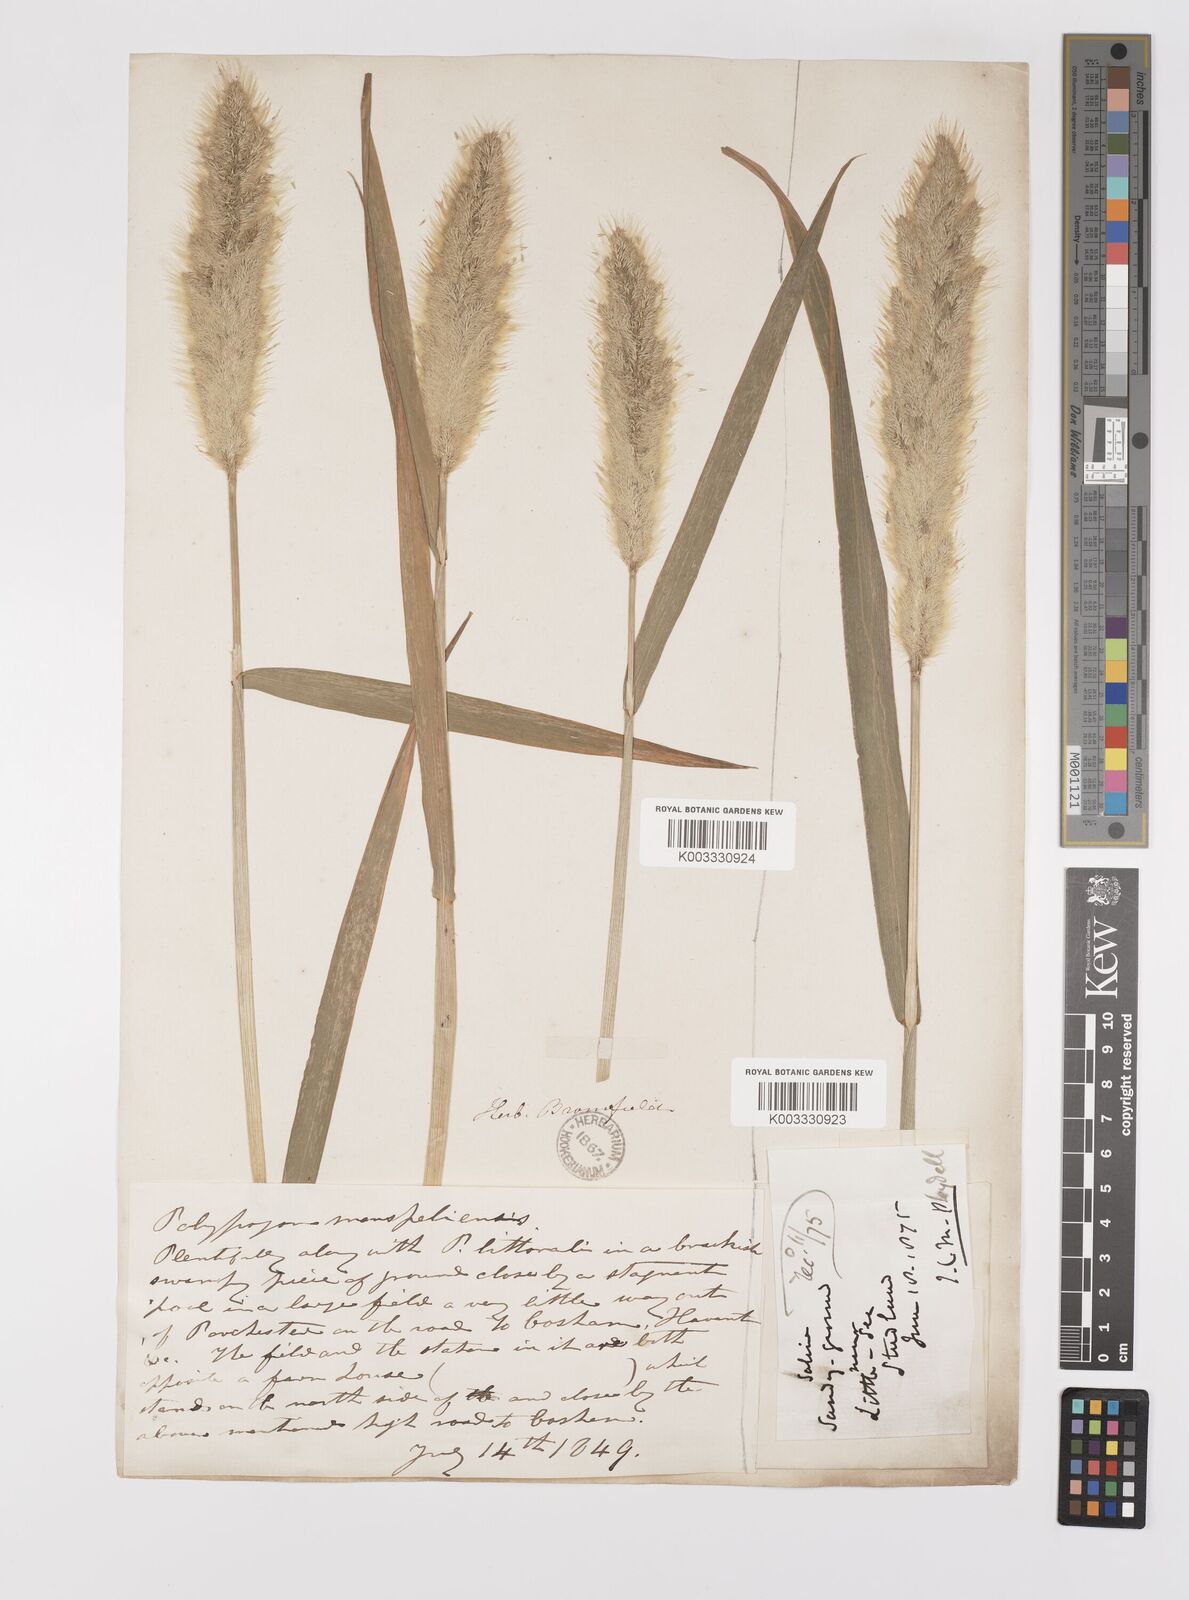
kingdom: Plantae
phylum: Tracheophyta
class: Liliopsida
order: Poales
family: Poaceae
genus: Polypogon
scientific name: Polypogon monspeliensis
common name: Annual rabbitsfoot grass
